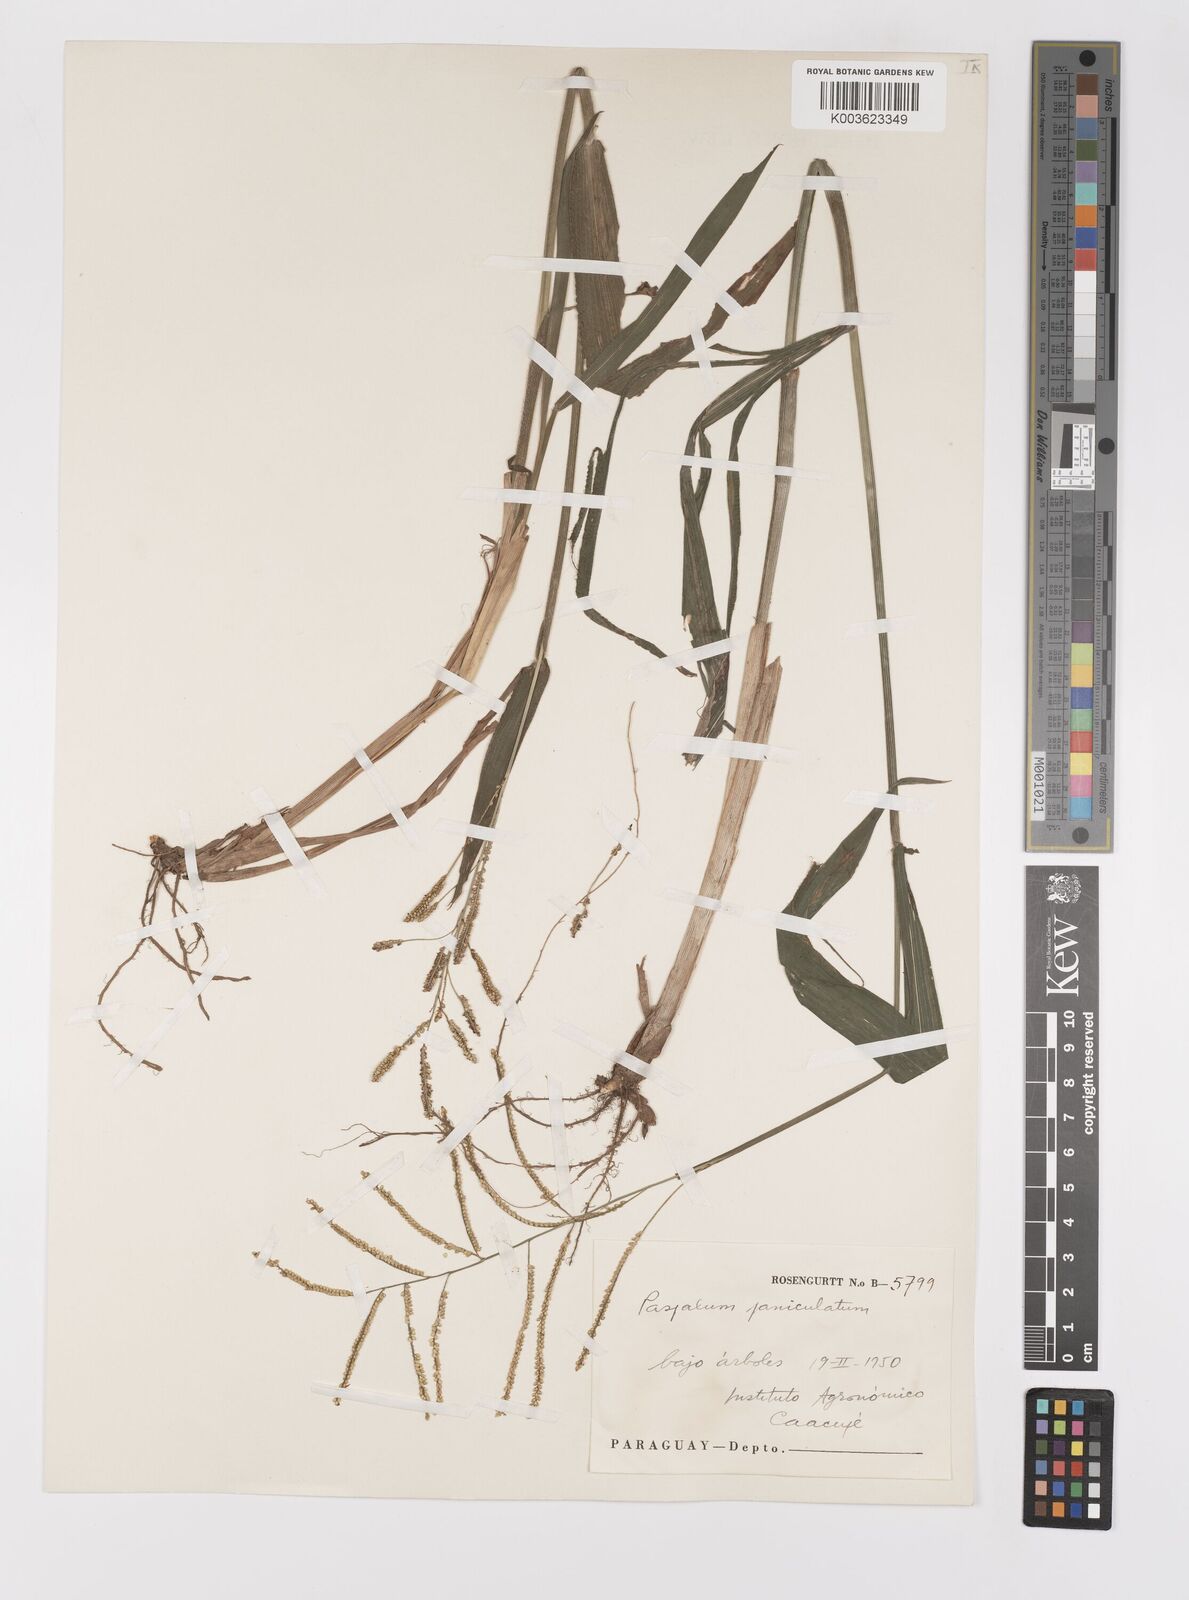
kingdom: Plantae
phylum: Tracheophyta
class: Liliopsida
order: Poales
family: Poaceae
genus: Paspalum
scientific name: Paspalum juergensii
